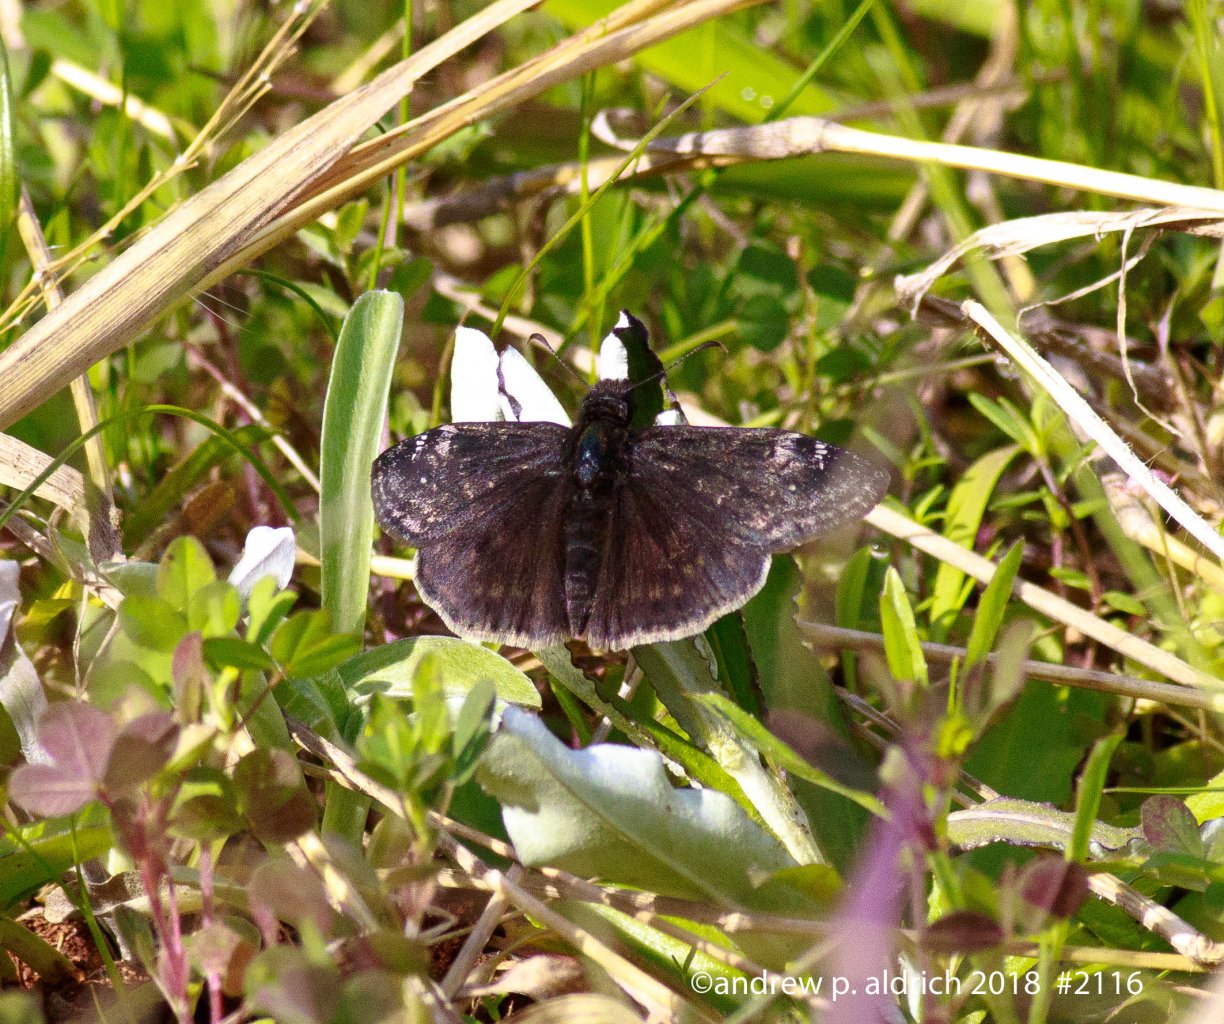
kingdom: Animalia
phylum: Arthropoda
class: Insecta
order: Lepidoptera
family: Hesperiidae
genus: Gesta
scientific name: Gesta
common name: Juvenal's Duskywing
